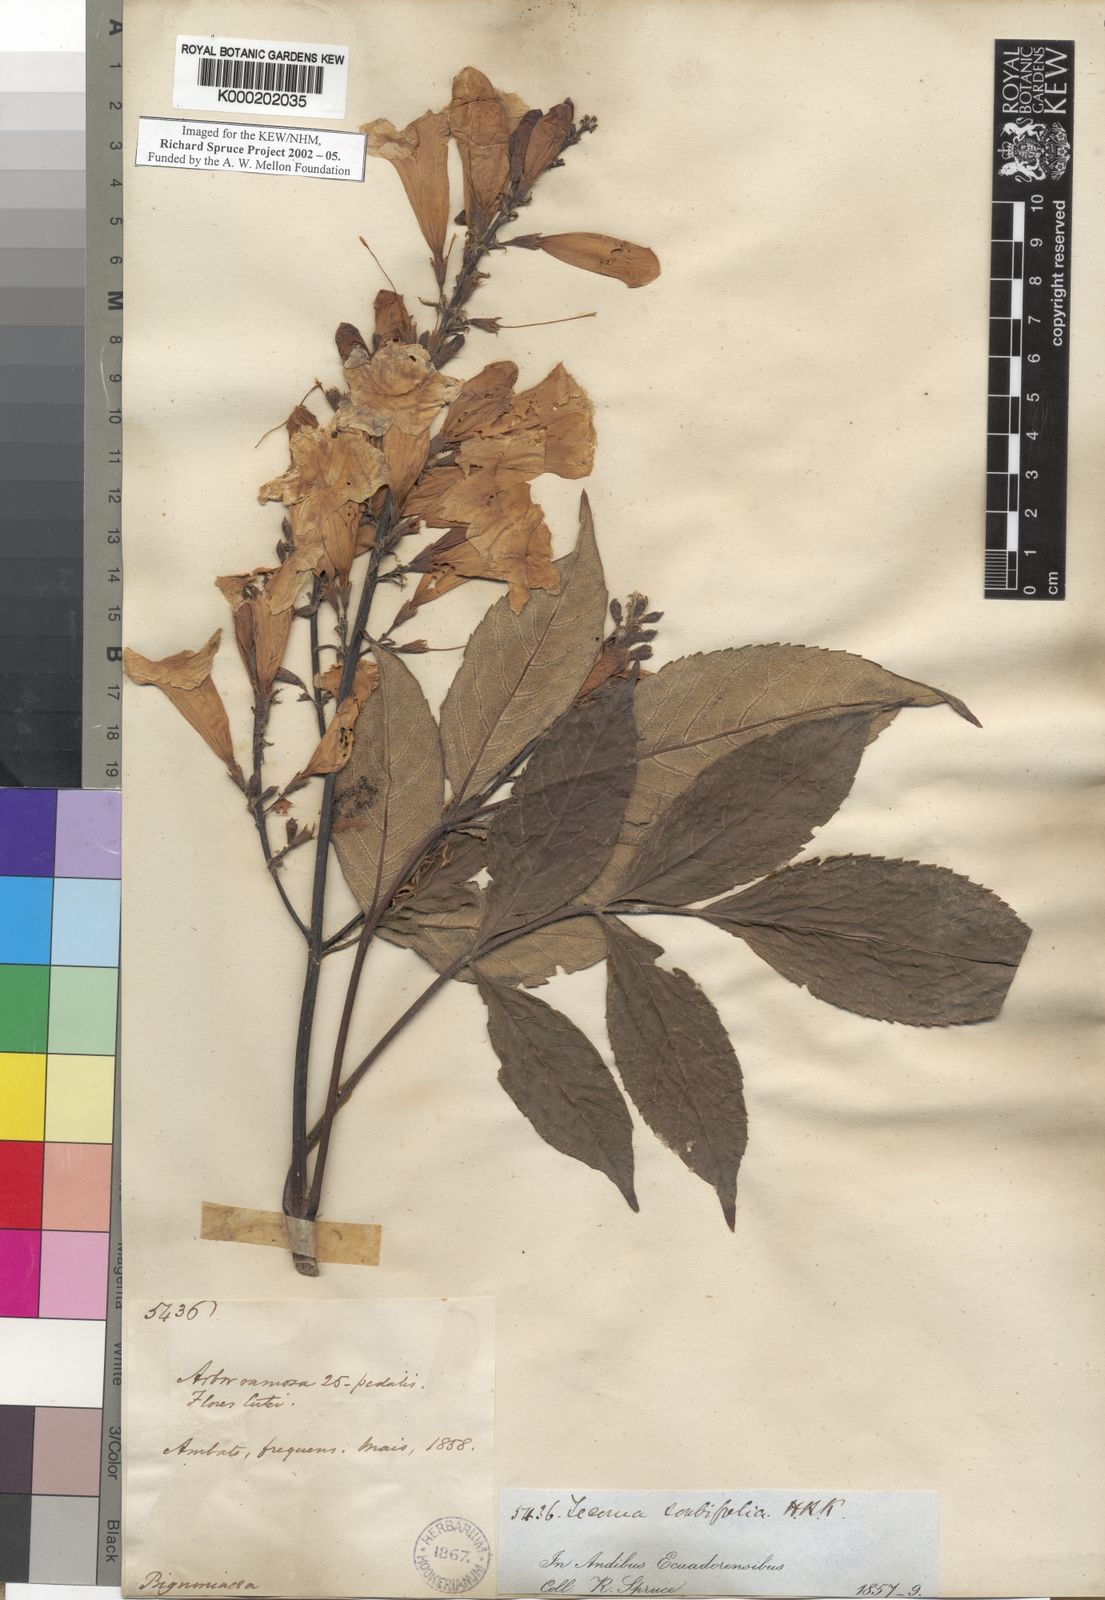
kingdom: Plantae
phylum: Tracheophyta
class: Magnoliopsida
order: Lamiales
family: Bignoniaceae
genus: Tecoma
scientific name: Tecoma stans
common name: Yellow trumpetbush
